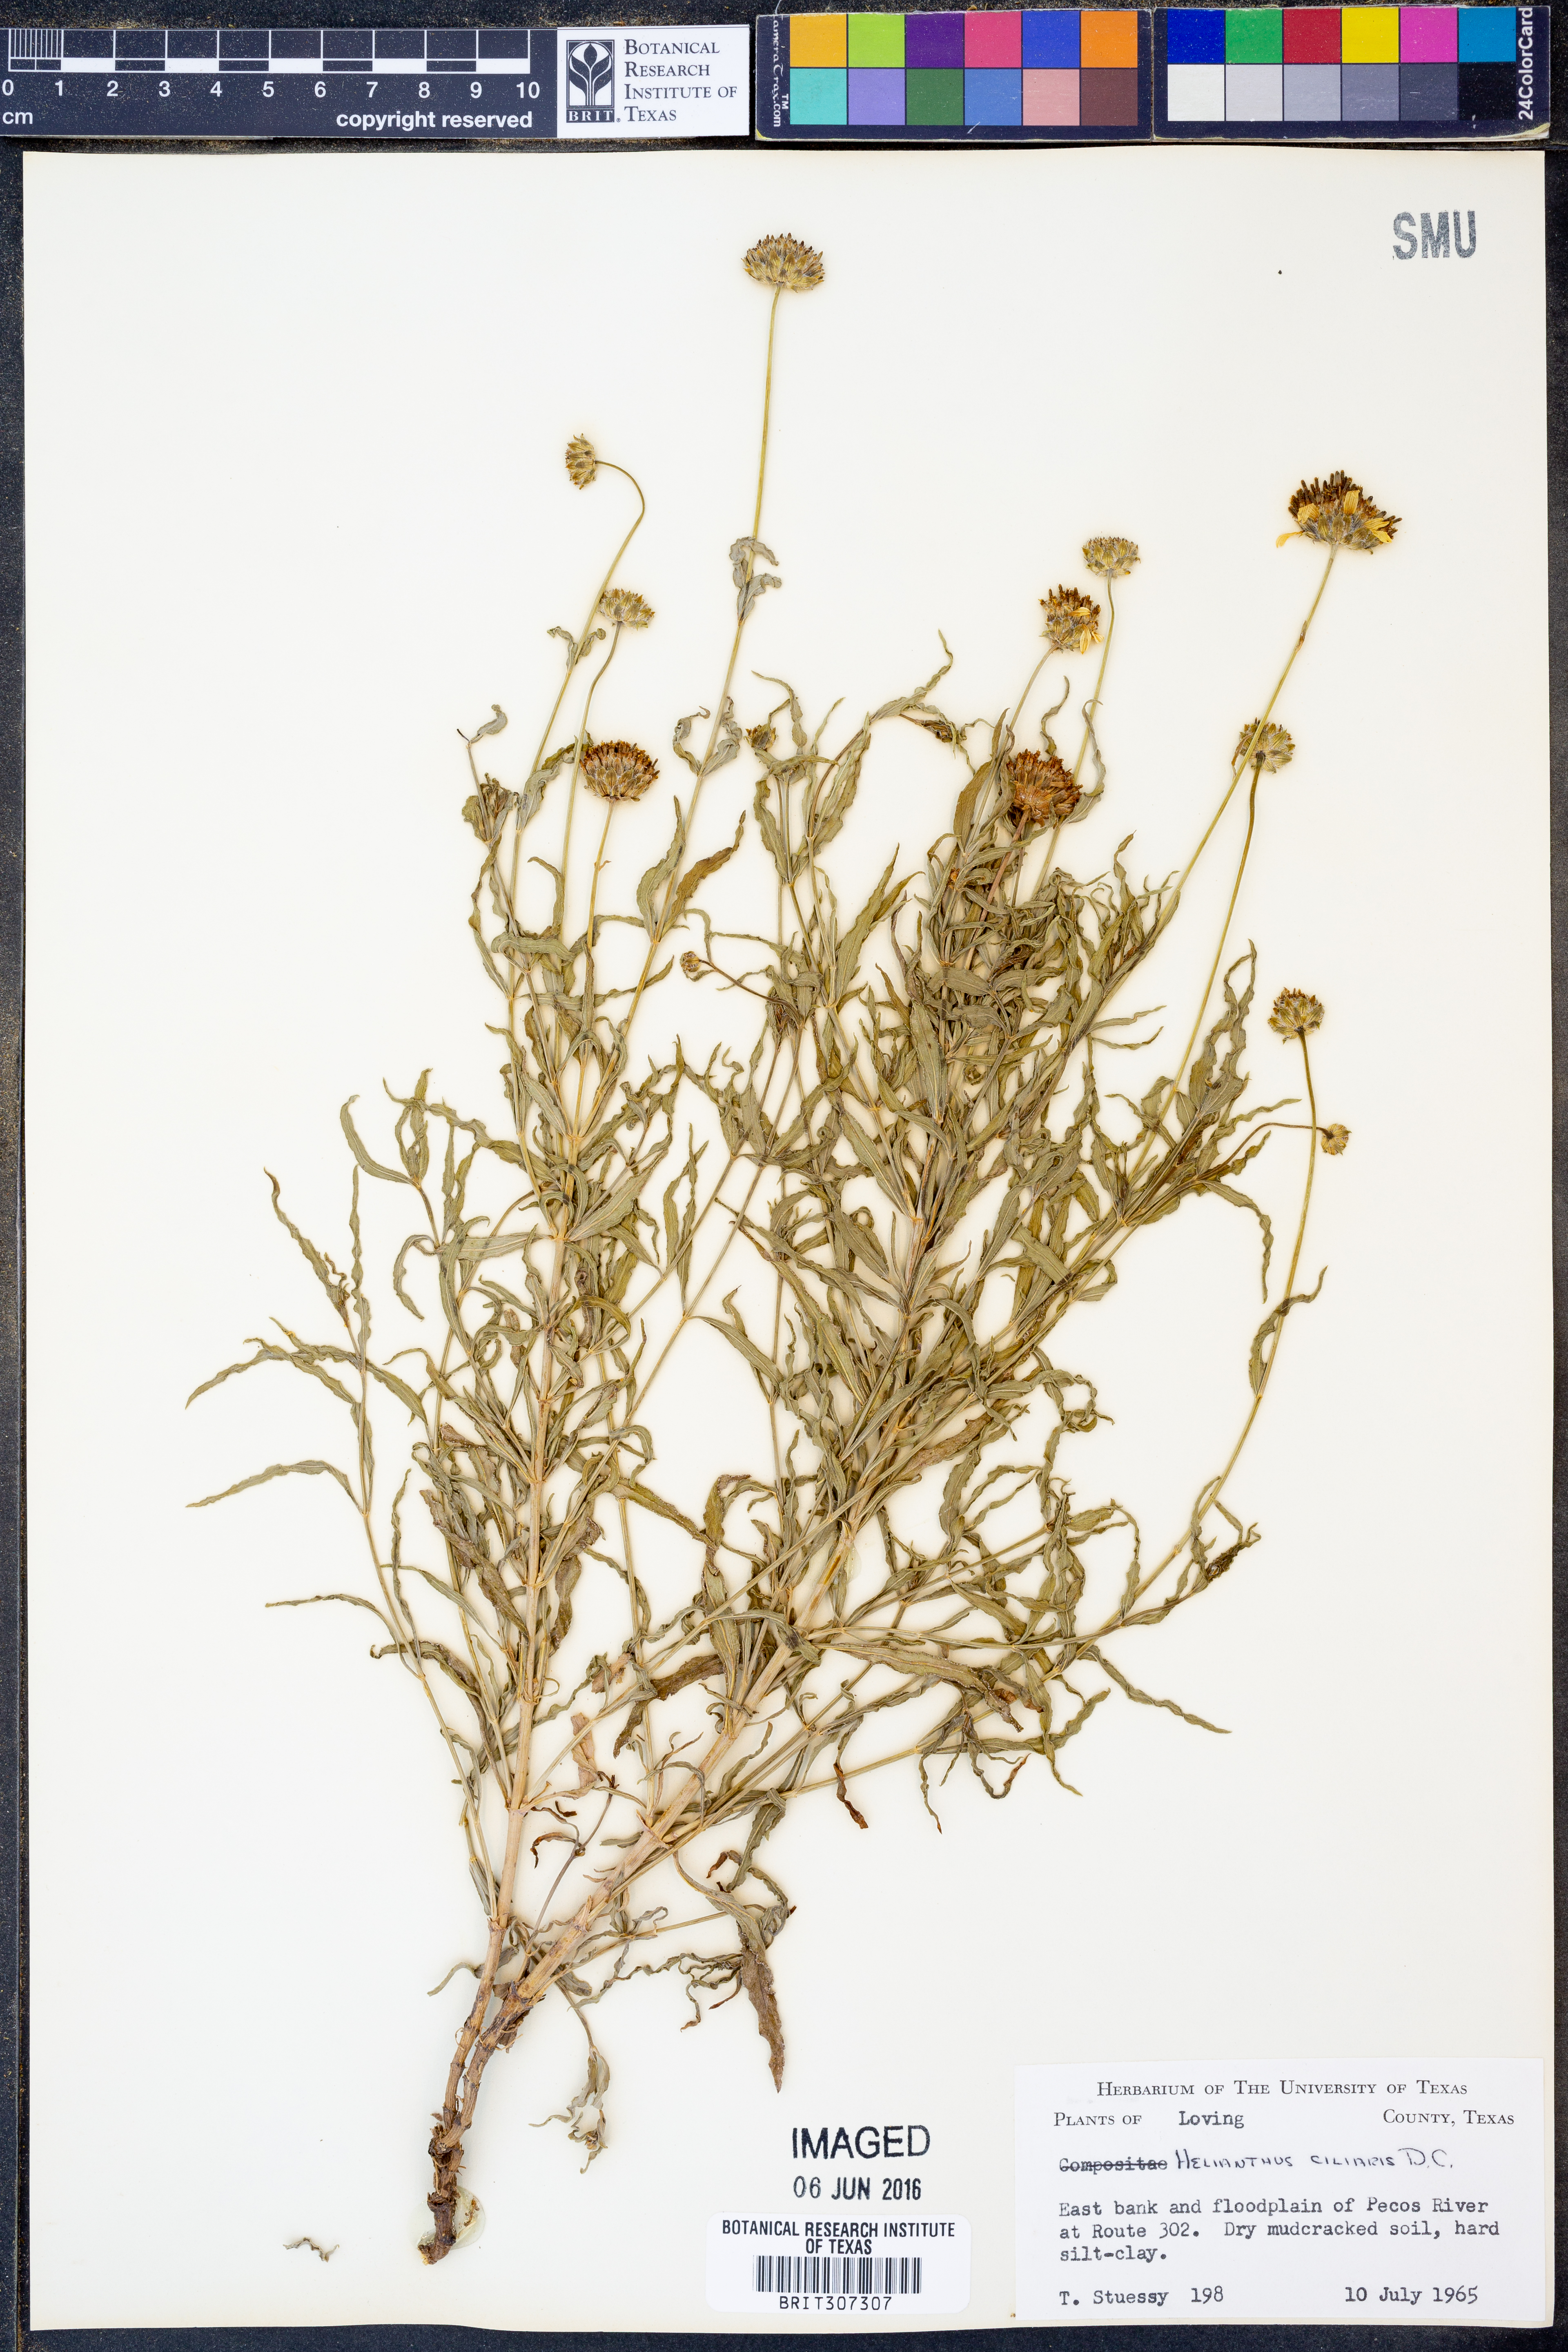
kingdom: Plantae
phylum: Tracheophyta
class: Magnoliopsida
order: Asterales
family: Asteraceae
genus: Helianthus
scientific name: Helianthus ciliaris
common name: Texas blueweed
